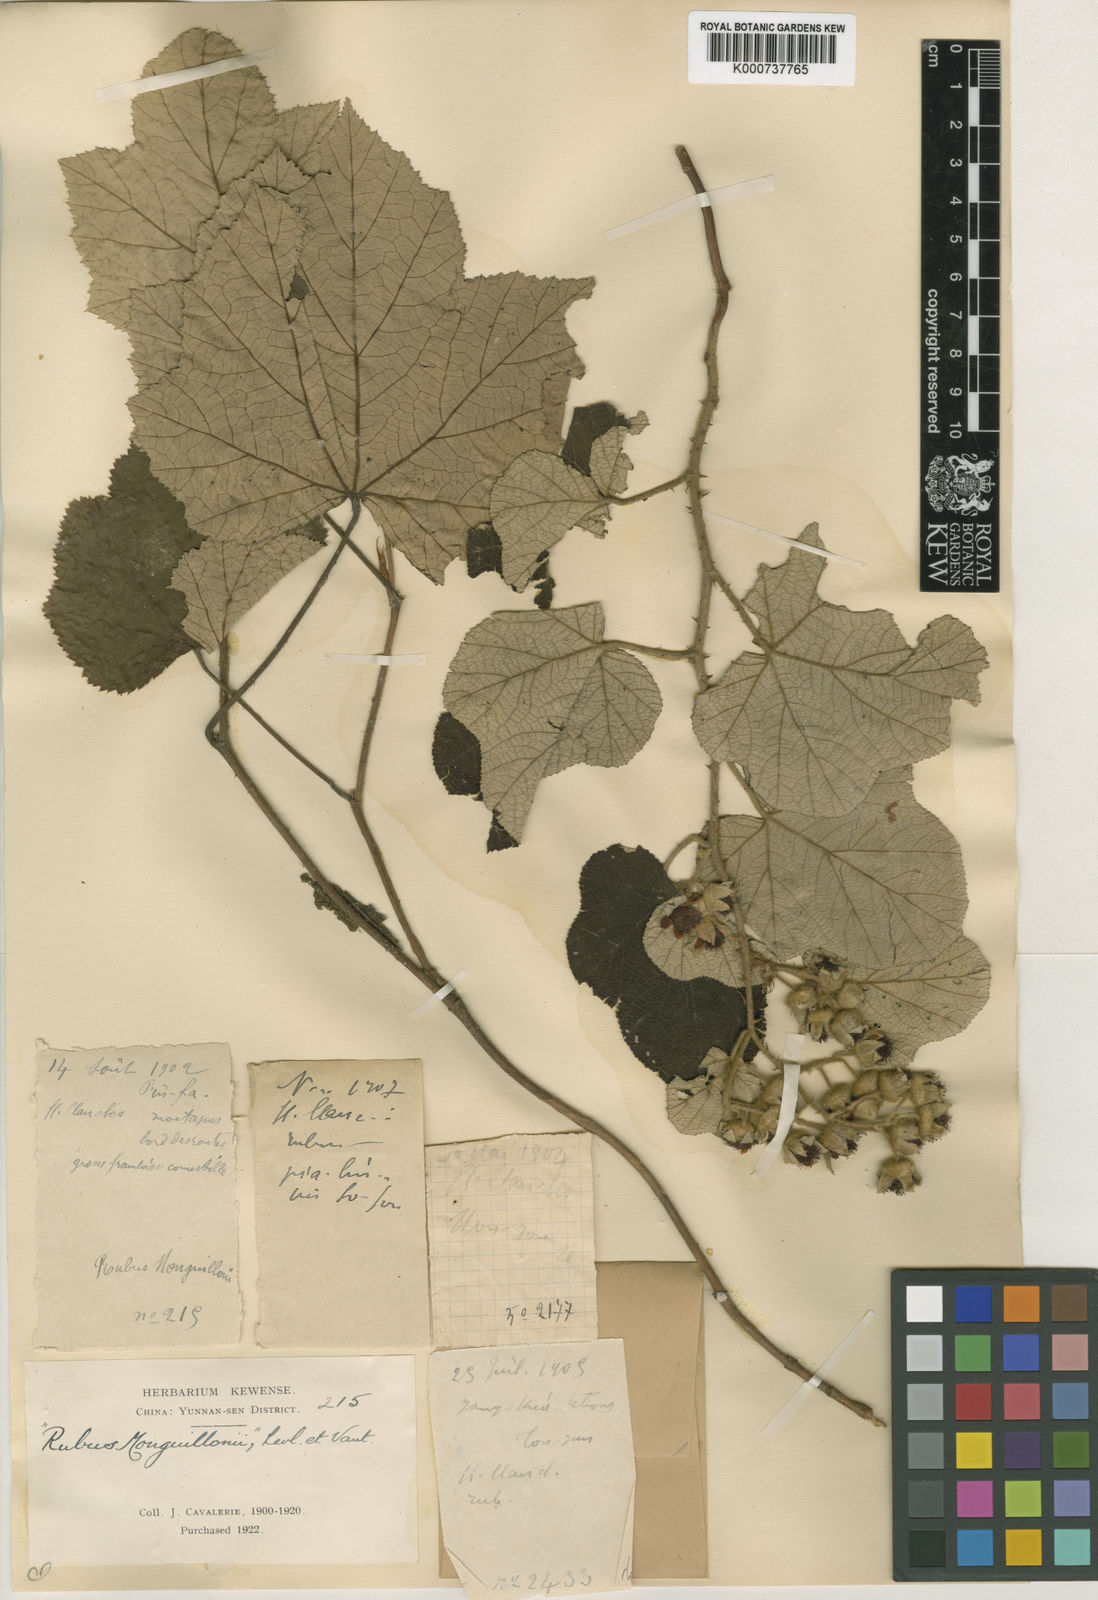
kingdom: Plantae
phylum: Tracheophyta
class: Magnoliopsida
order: Rosales
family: Rosaceae
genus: Rubus
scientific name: Rubus
